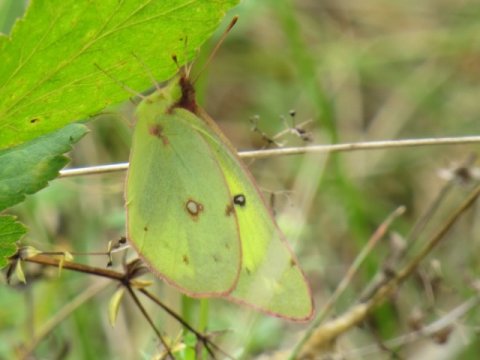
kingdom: Animalia
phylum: Arthropoda
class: Insecta
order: Lepidoptera
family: Pieridae
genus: Colias
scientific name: Colias philodice
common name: Clouded Sulphur
